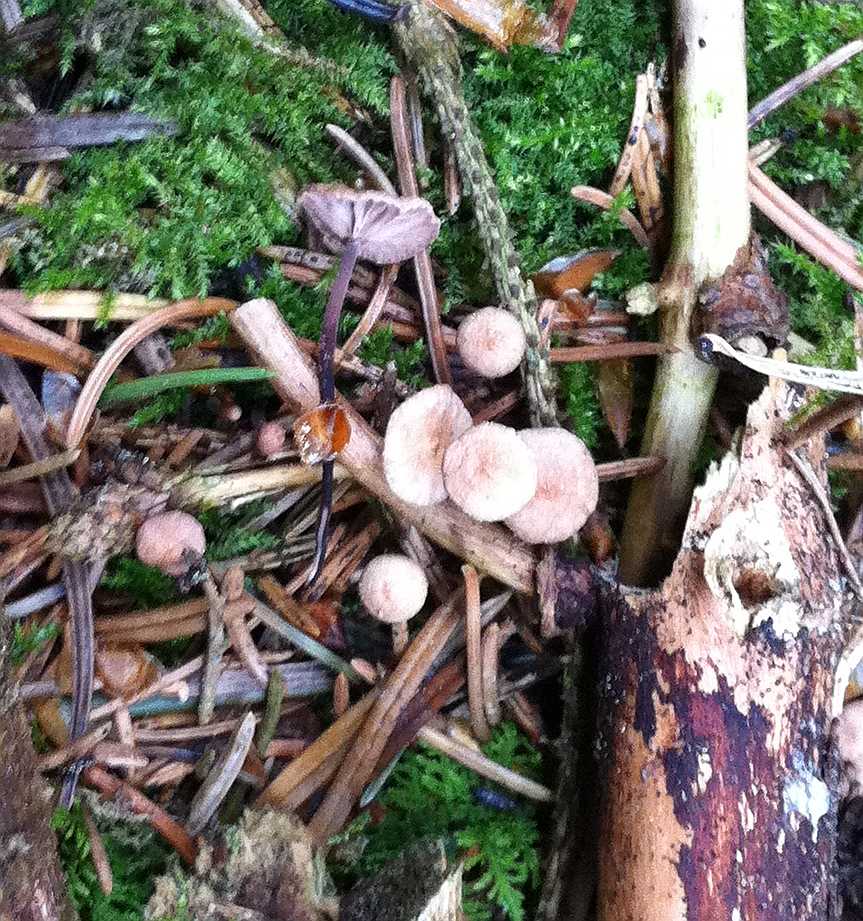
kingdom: Fungi
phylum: Basidiomycota
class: Agaricomycetes
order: Agaricales
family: Omphalotaceae
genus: Paragymnopus
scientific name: Paragymnopus perforans
